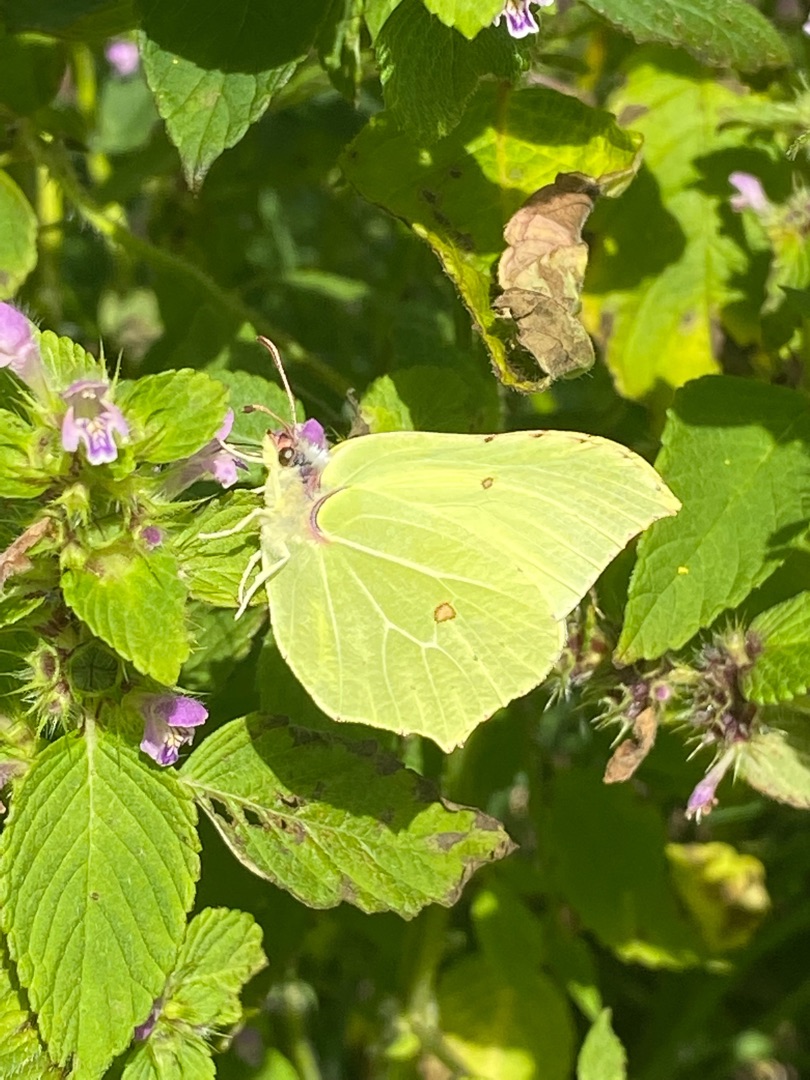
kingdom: Animalia
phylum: Arthropoda
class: Insecta
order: Lepidoptera
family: Pieridae
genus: Gonepteryx
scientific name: Gonepteryx rhamni
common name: Citronsommerfugl
